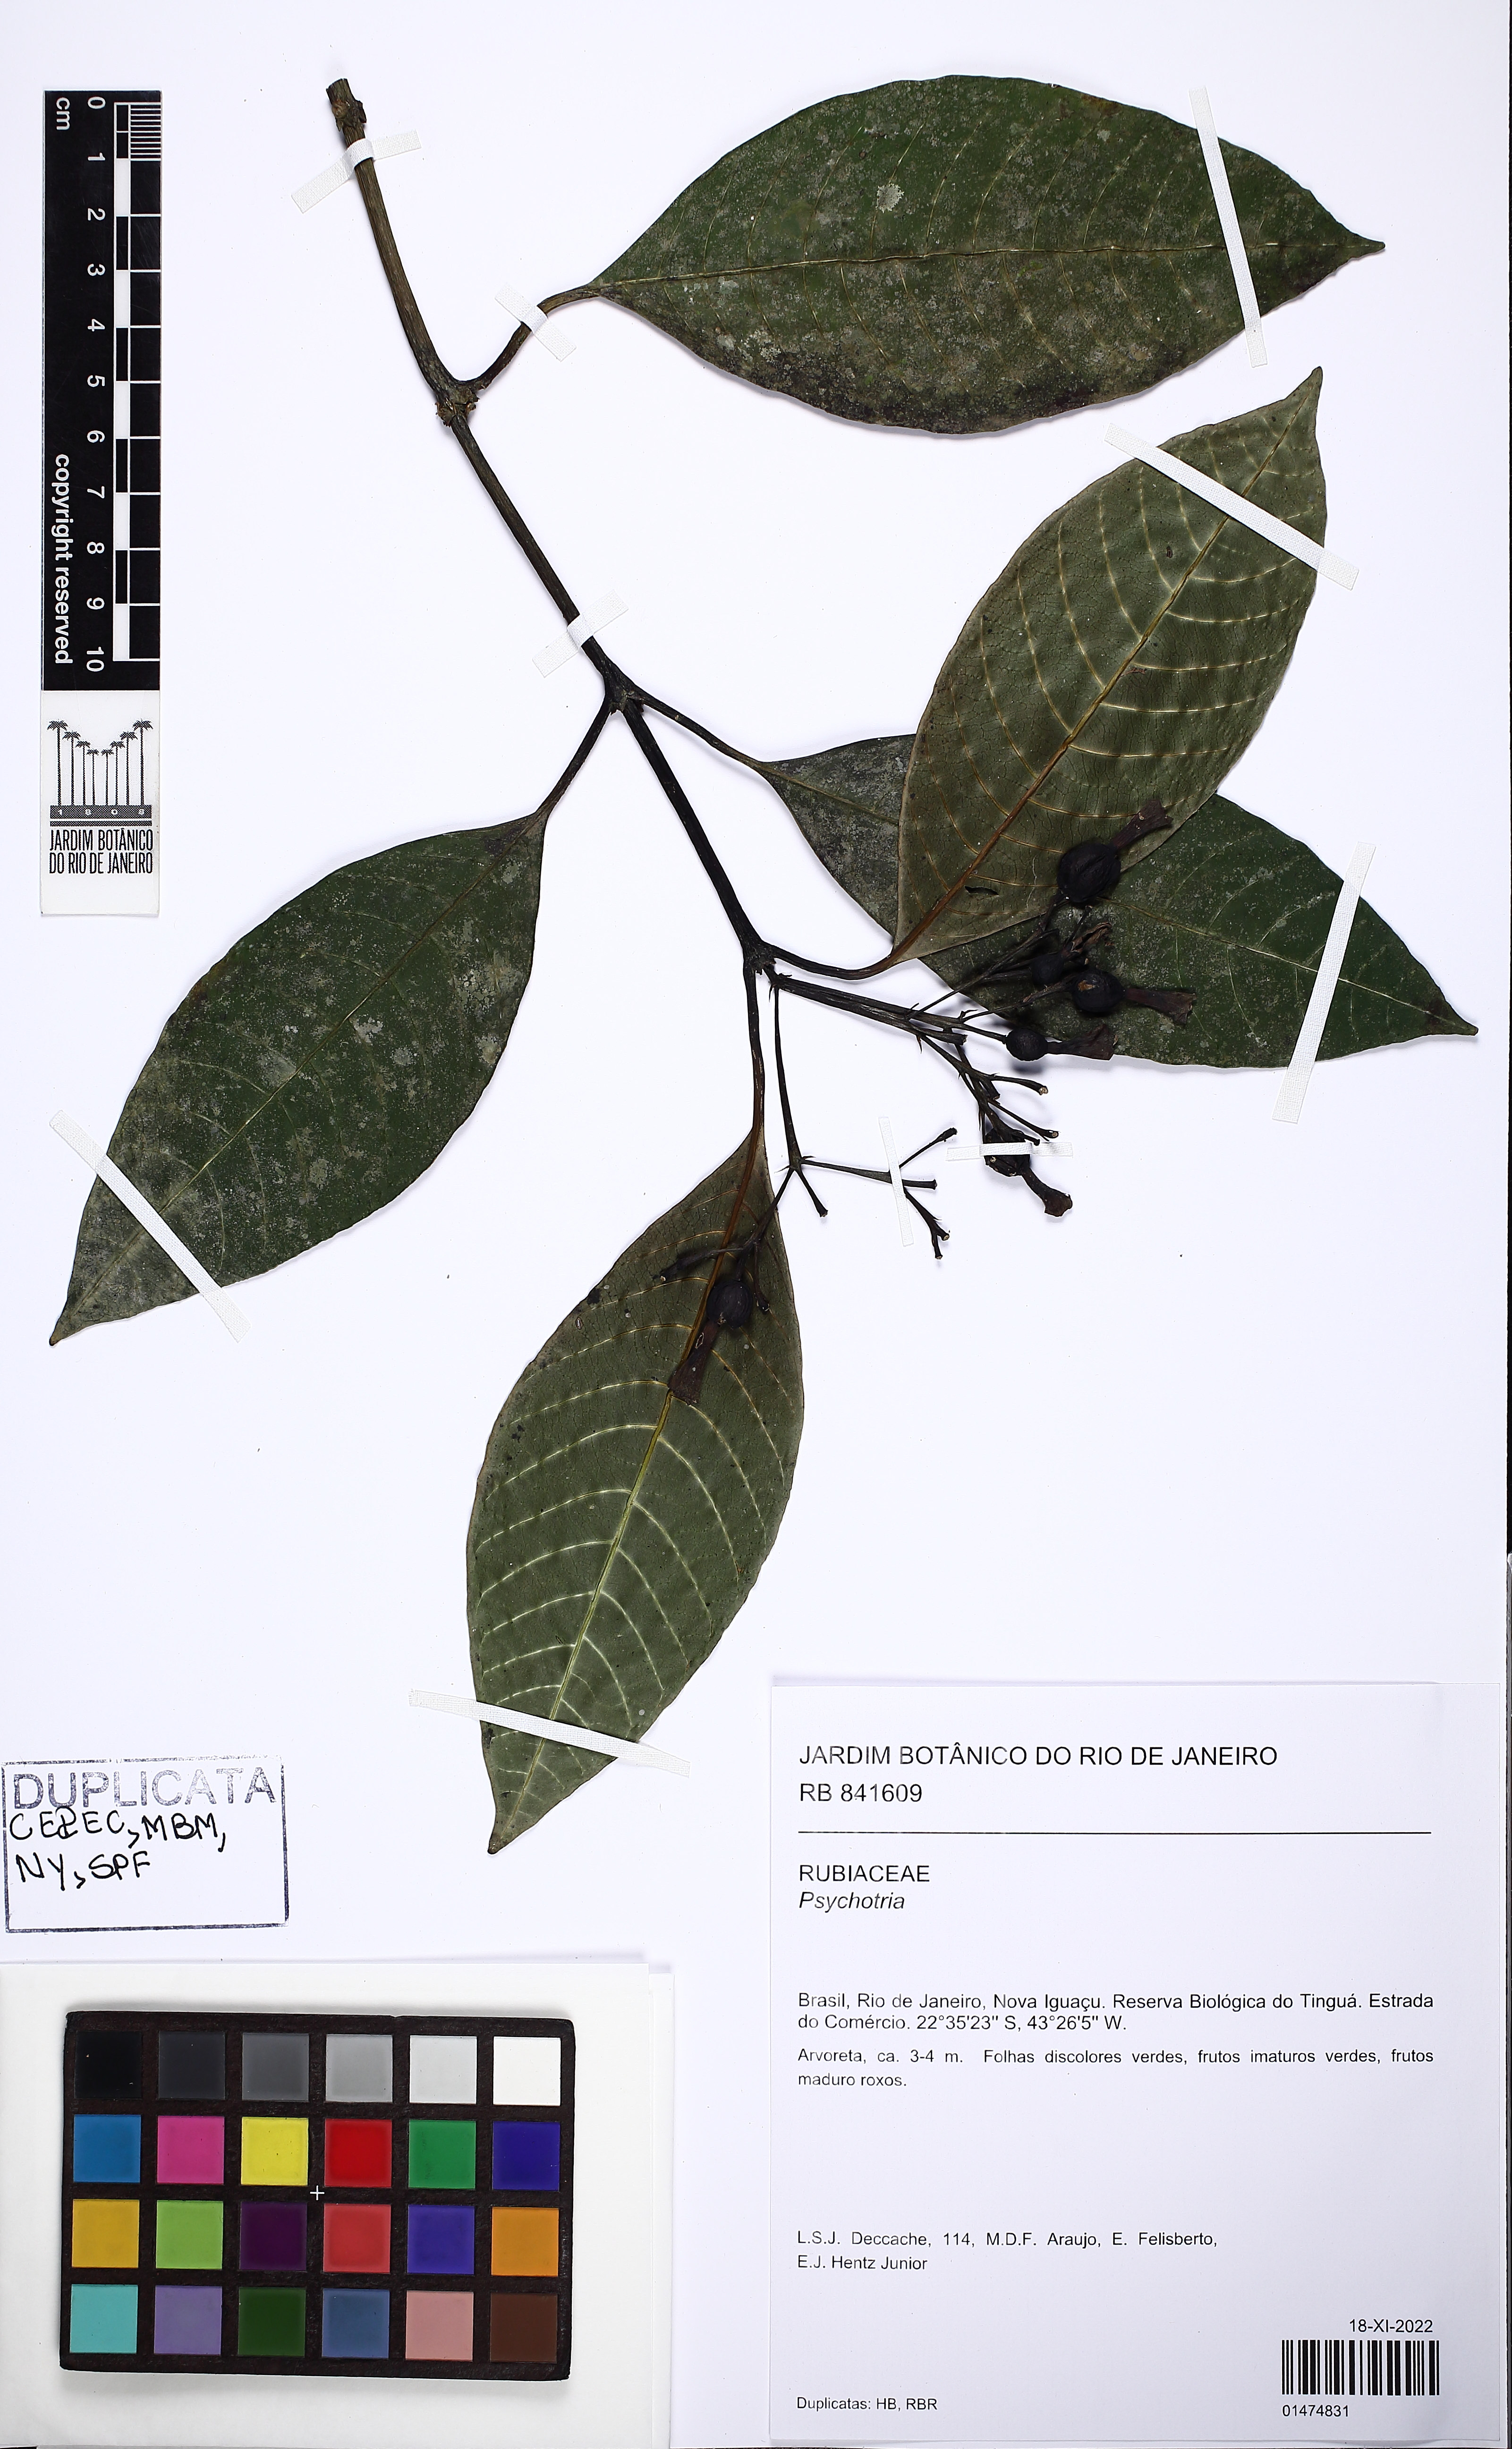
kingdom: Plantae
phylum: Tracheophyta
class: Magnoliopsida
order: Gentianales
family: Rubiaceae
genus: Psychotria
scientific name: Psychotria
